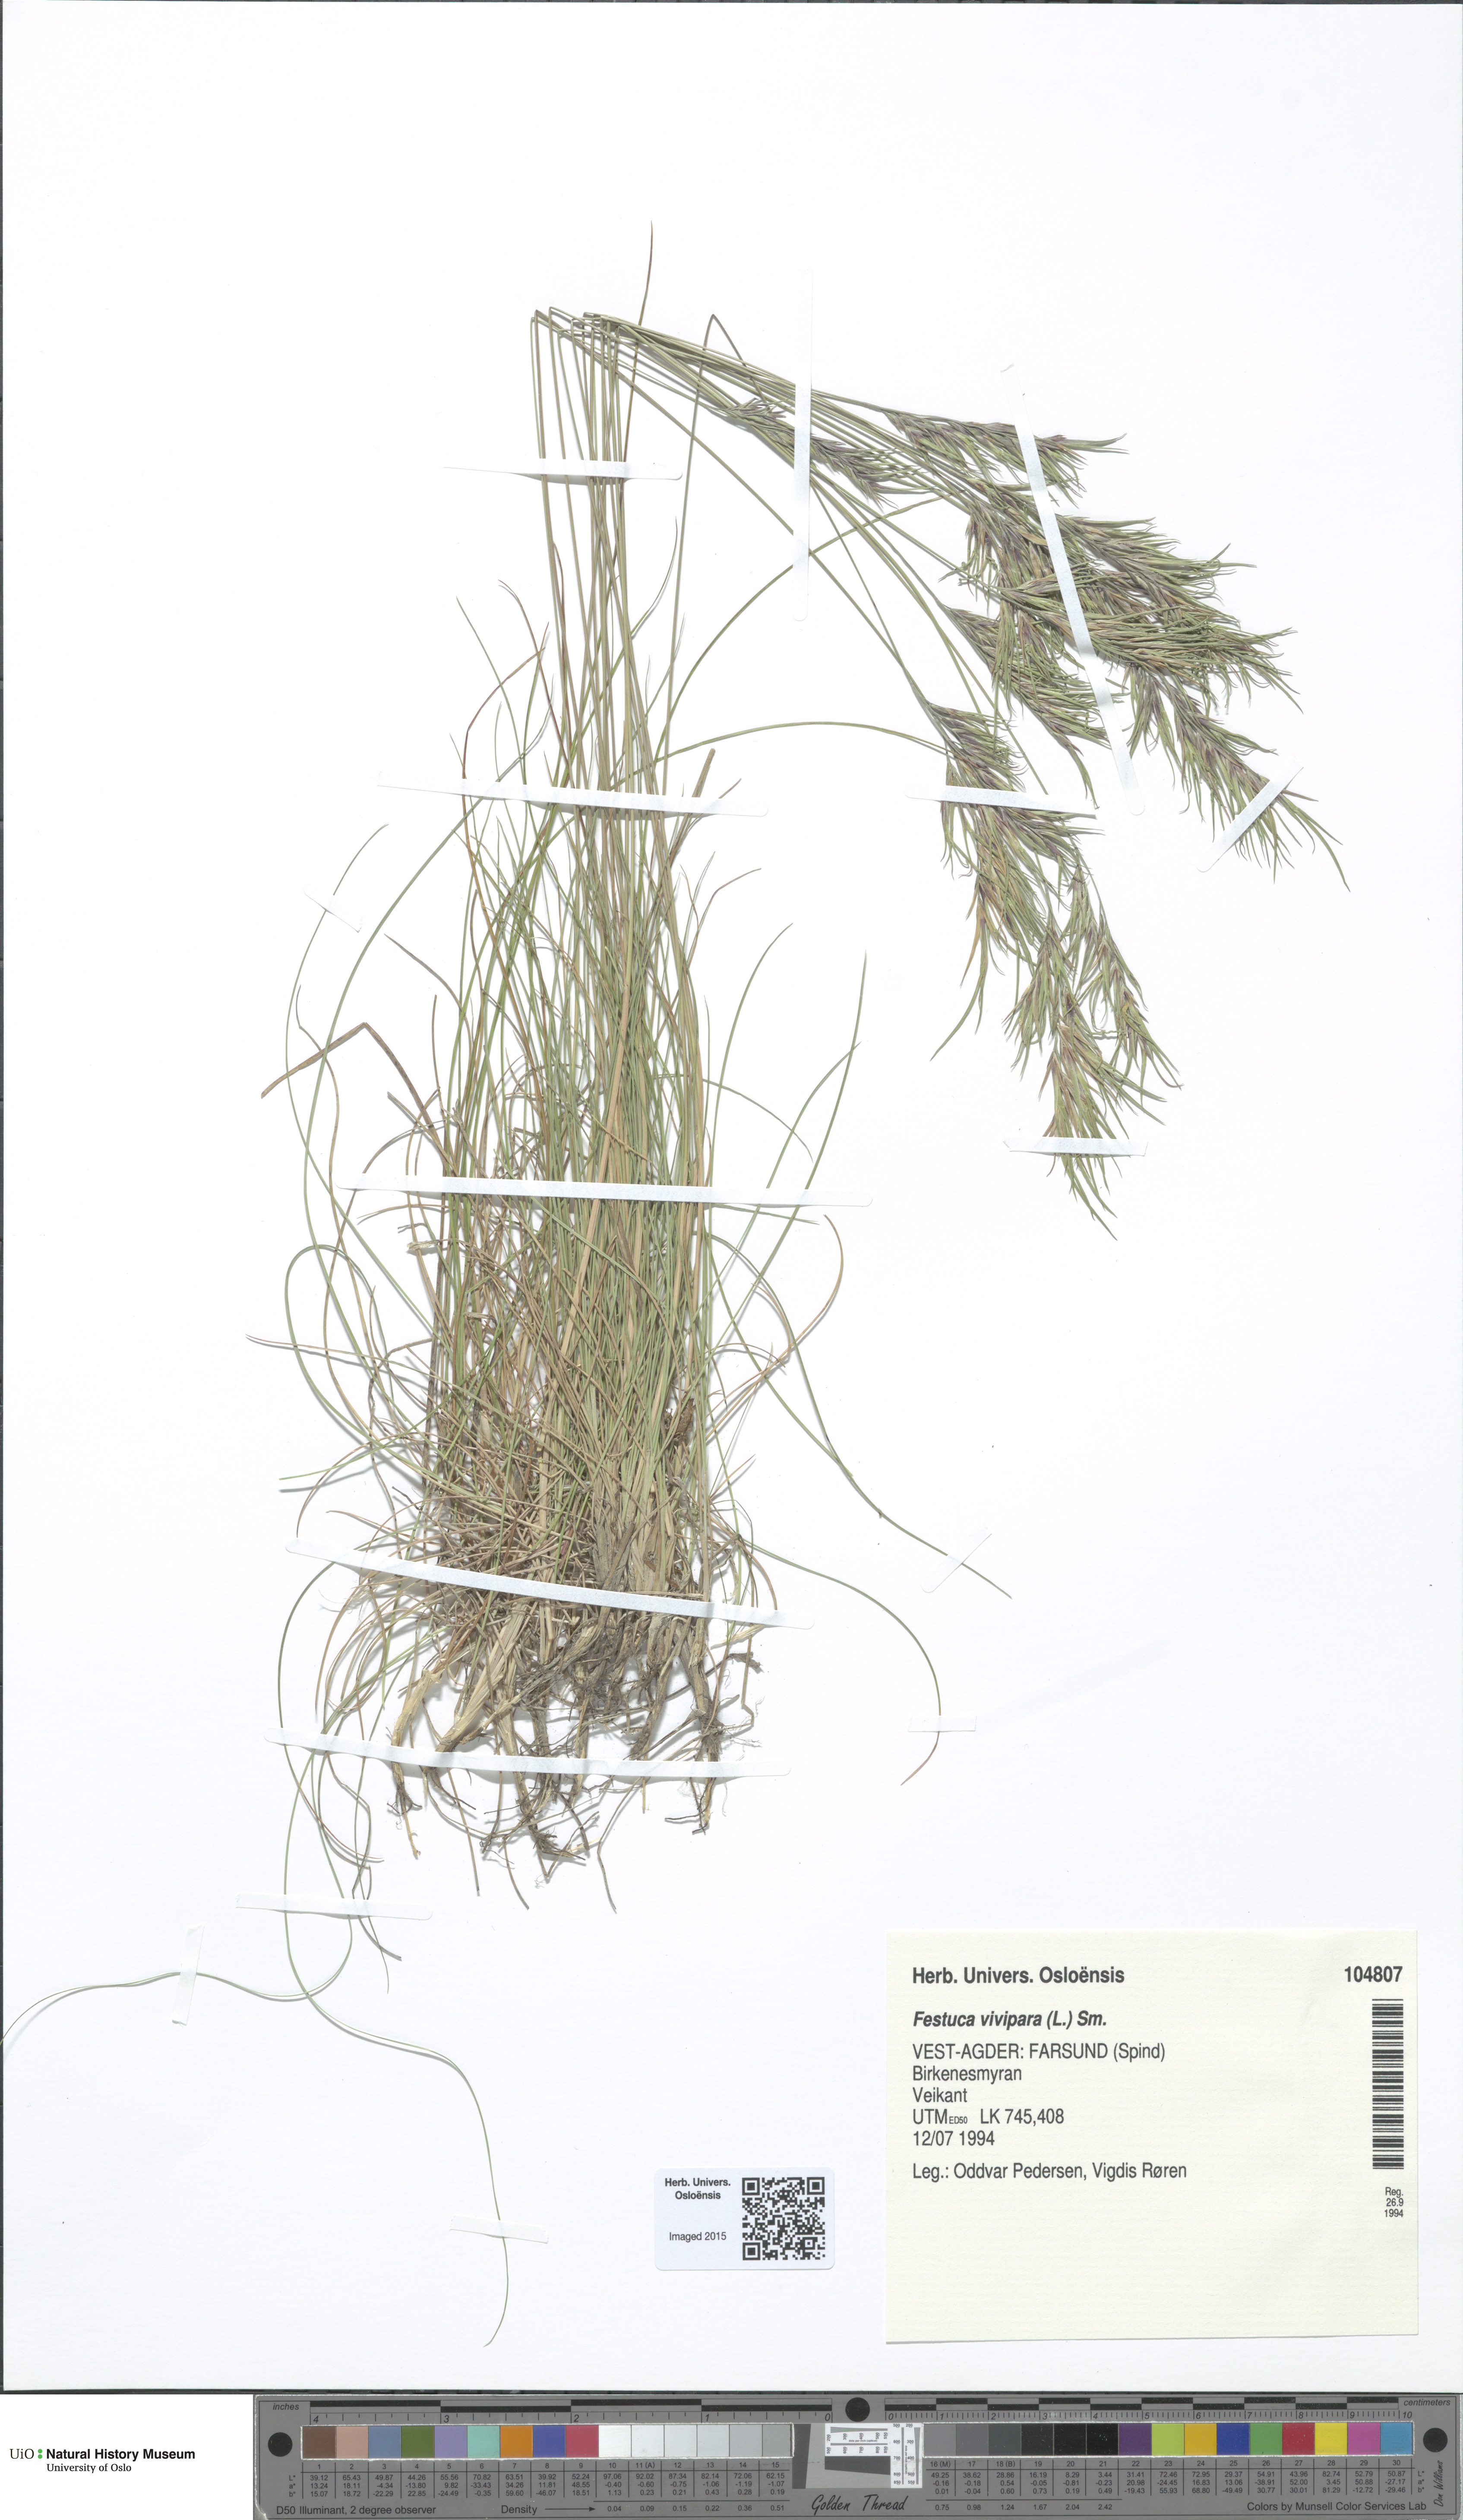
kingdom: Plantae
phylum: Tracheophyta
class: Liliopsida
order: Poales
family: Poaceae
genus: Festuca
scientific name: Festuca vivipara
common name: Viviparous sheep's-fescue
